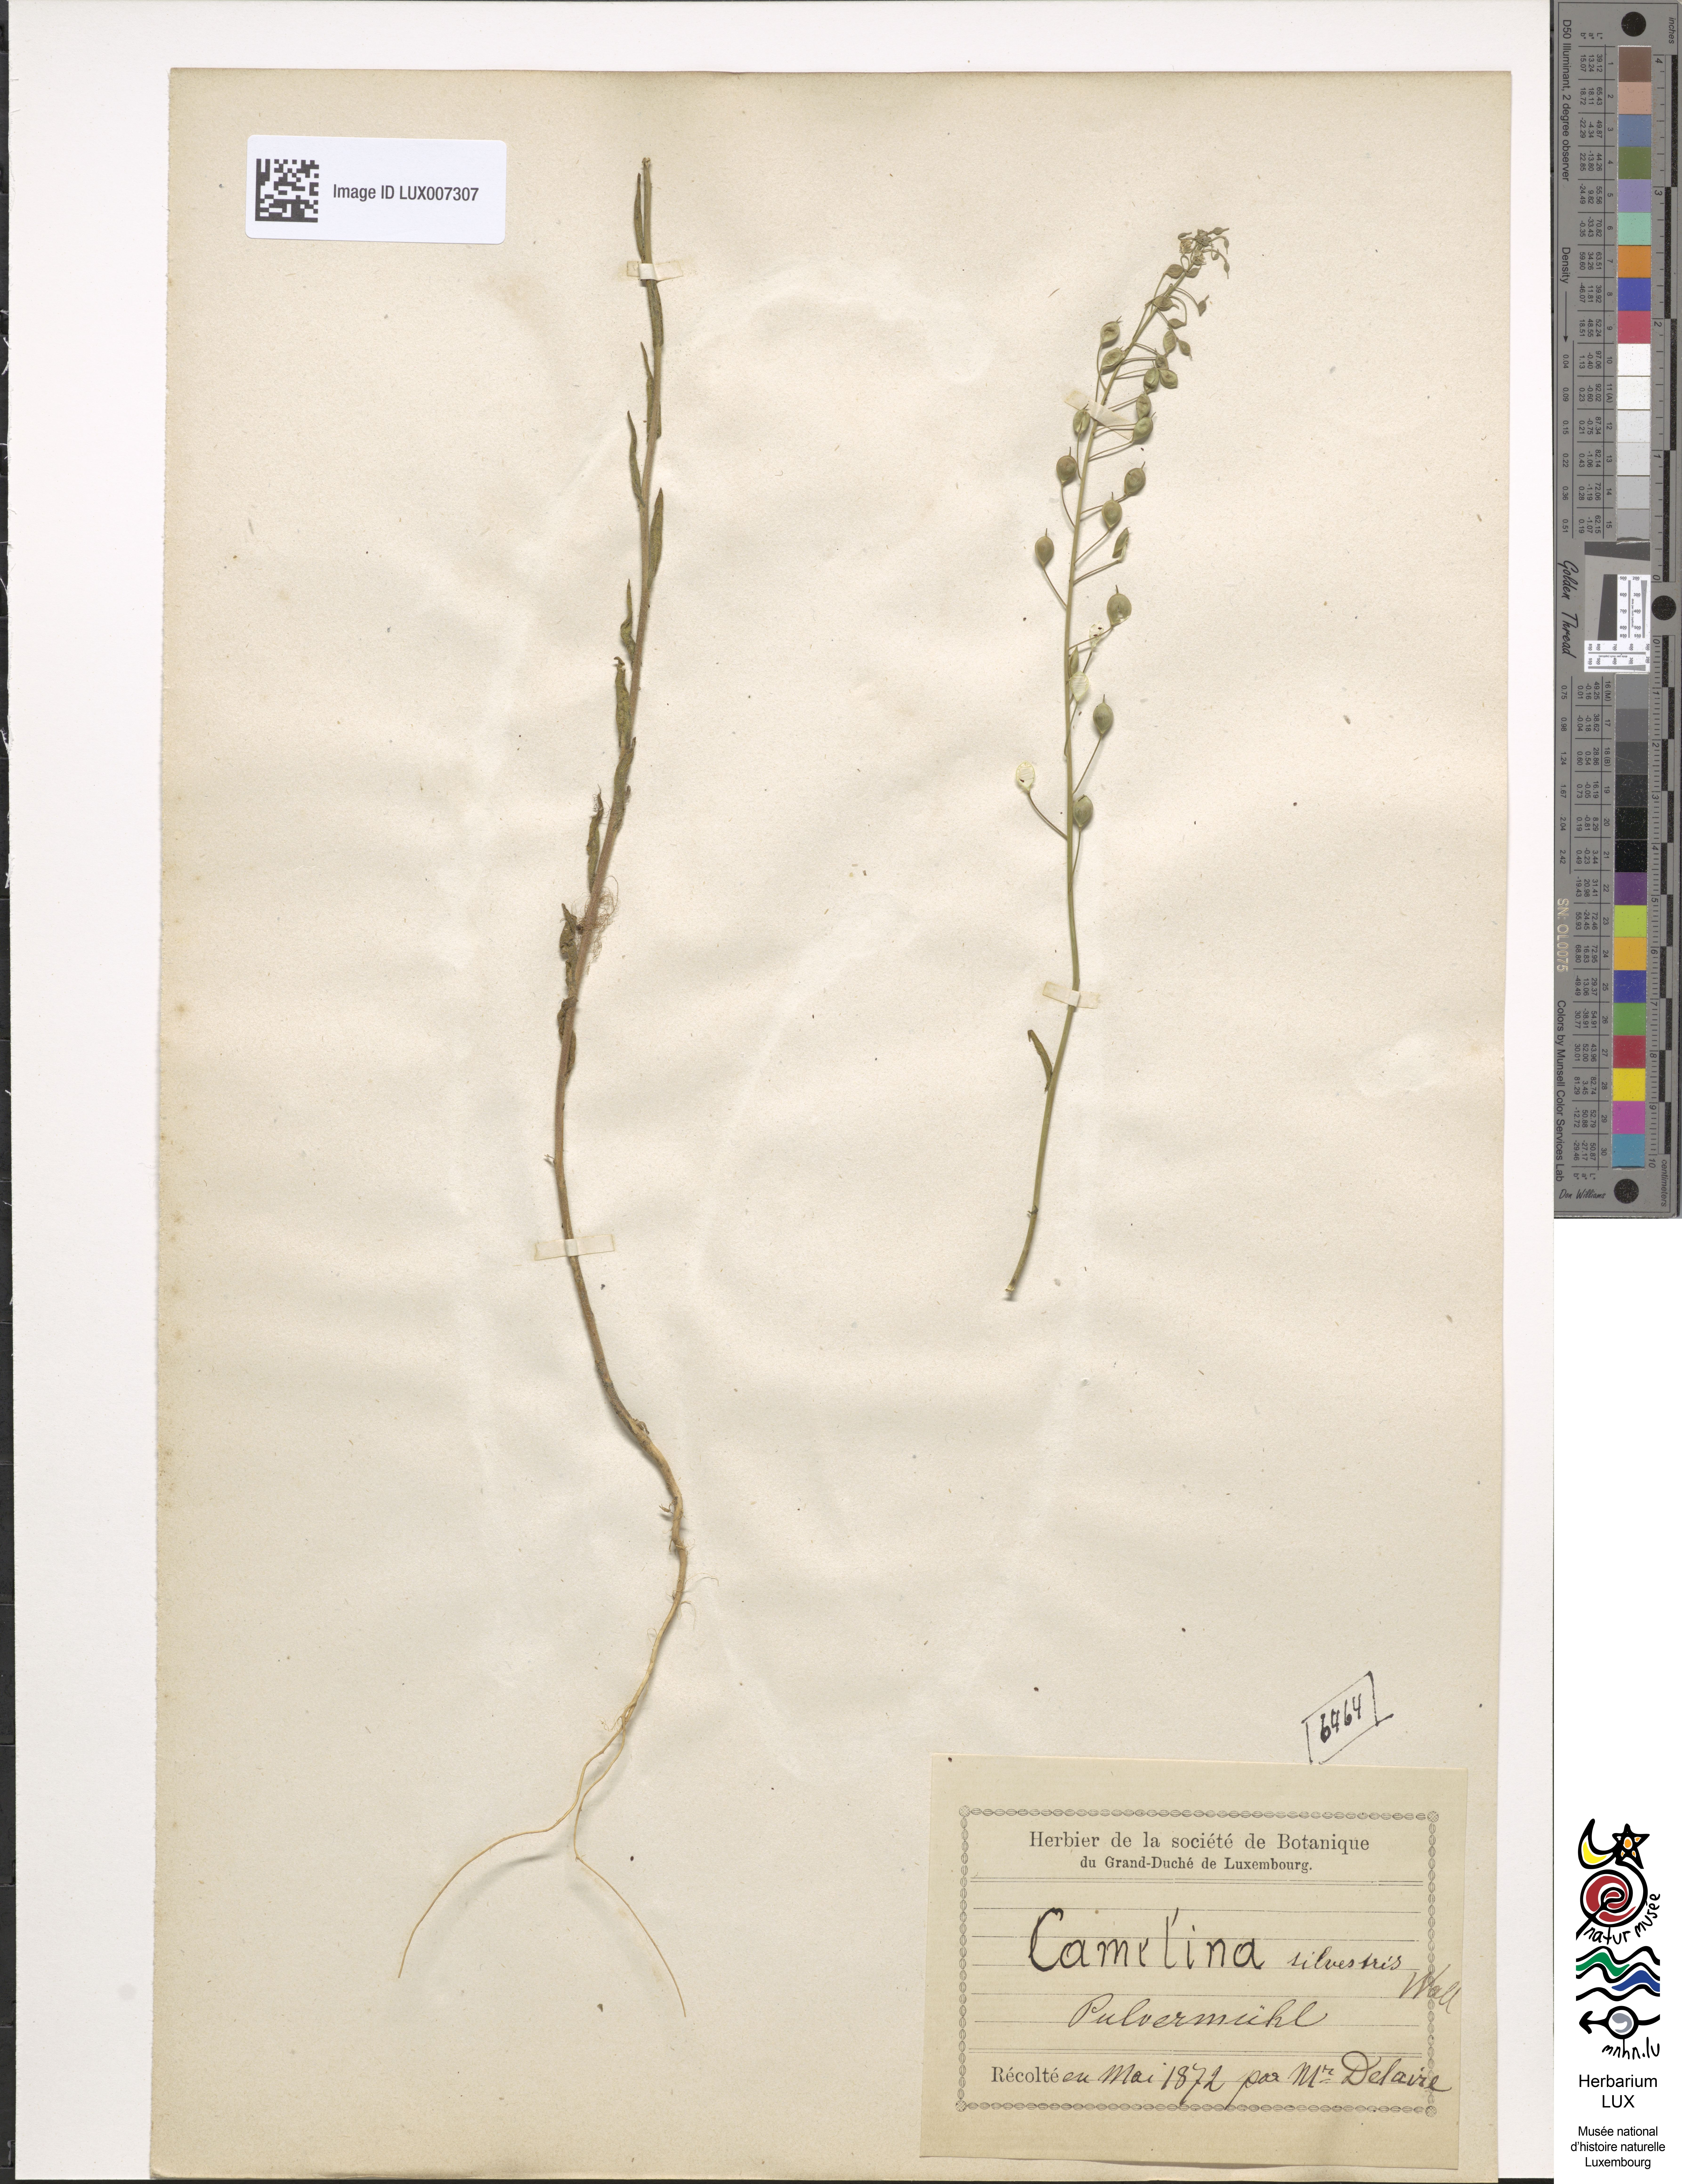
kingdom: Plantae
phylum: Tracheophyta
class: Magnoliopsida
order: Brassicales
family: Brassicaceae
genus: Camelina
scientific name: Camelina microcarpa
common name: Lesser gold-of-pleasure
